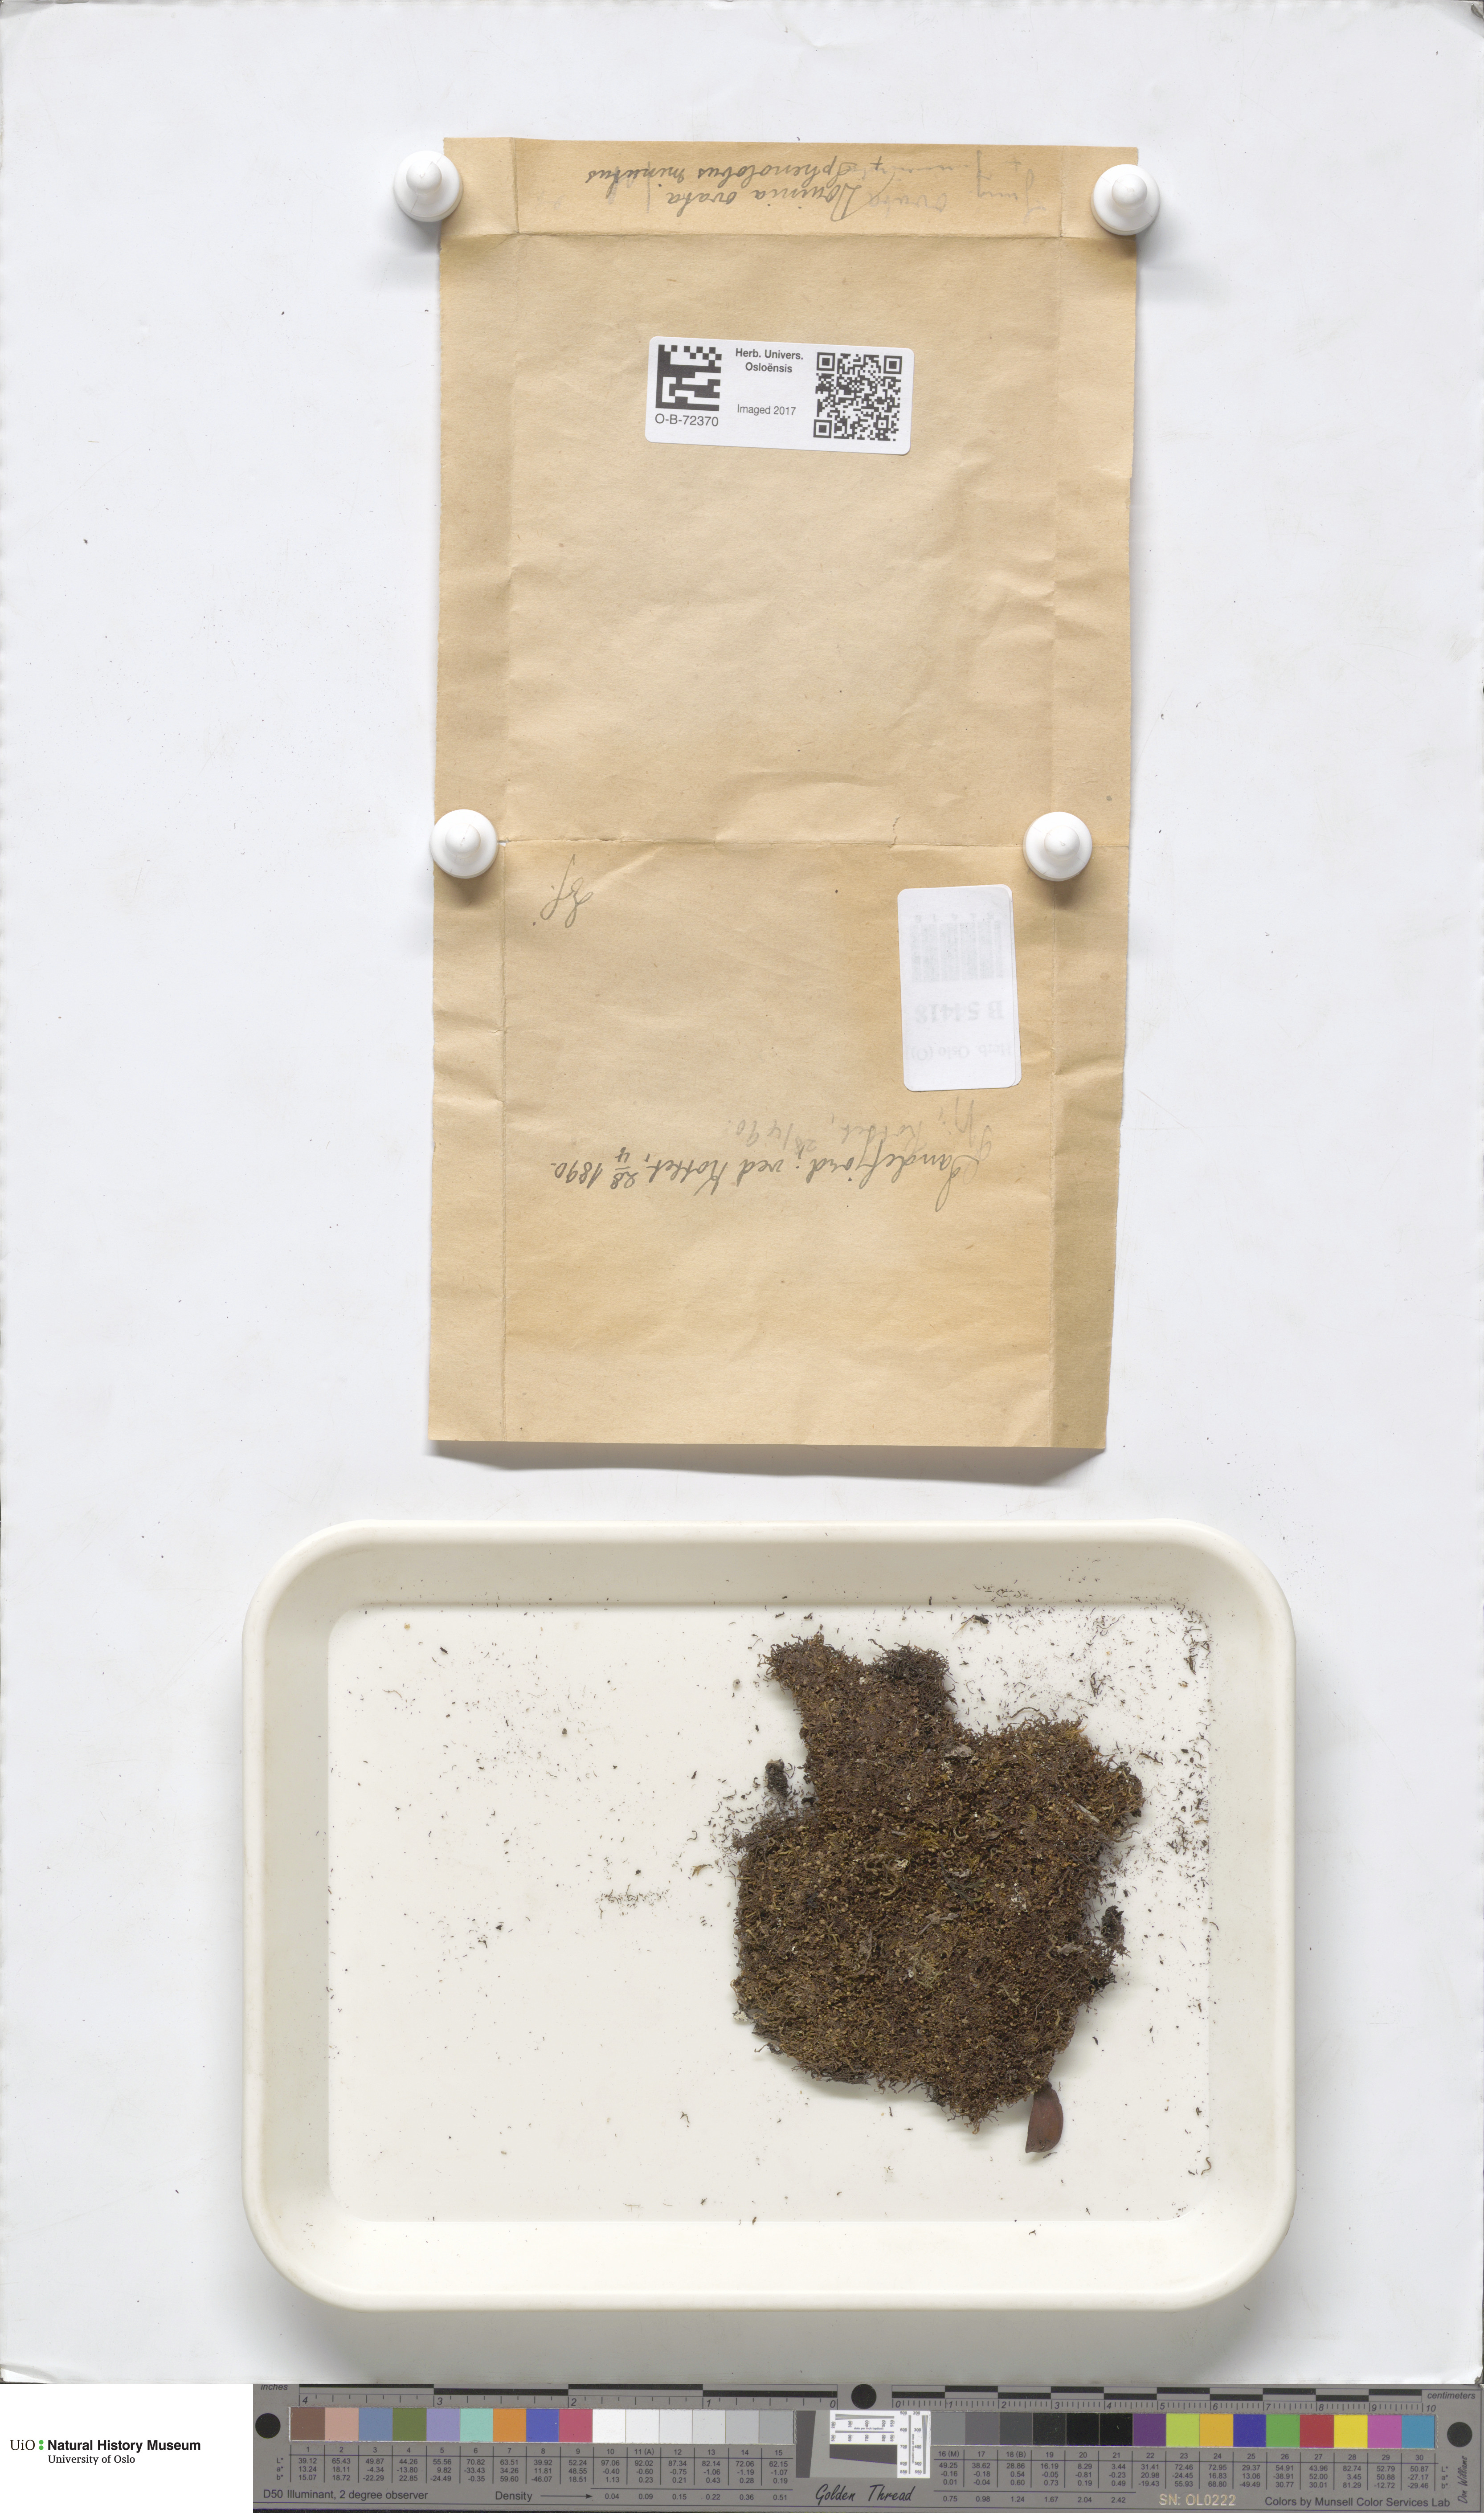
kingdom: Plantae
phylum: Marchantiophyta
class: Jungermanniopsida
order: Jungermanniales
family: Scapaniaceae
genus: Douinia
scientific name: Douinia ovata
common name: Waxy earwort
